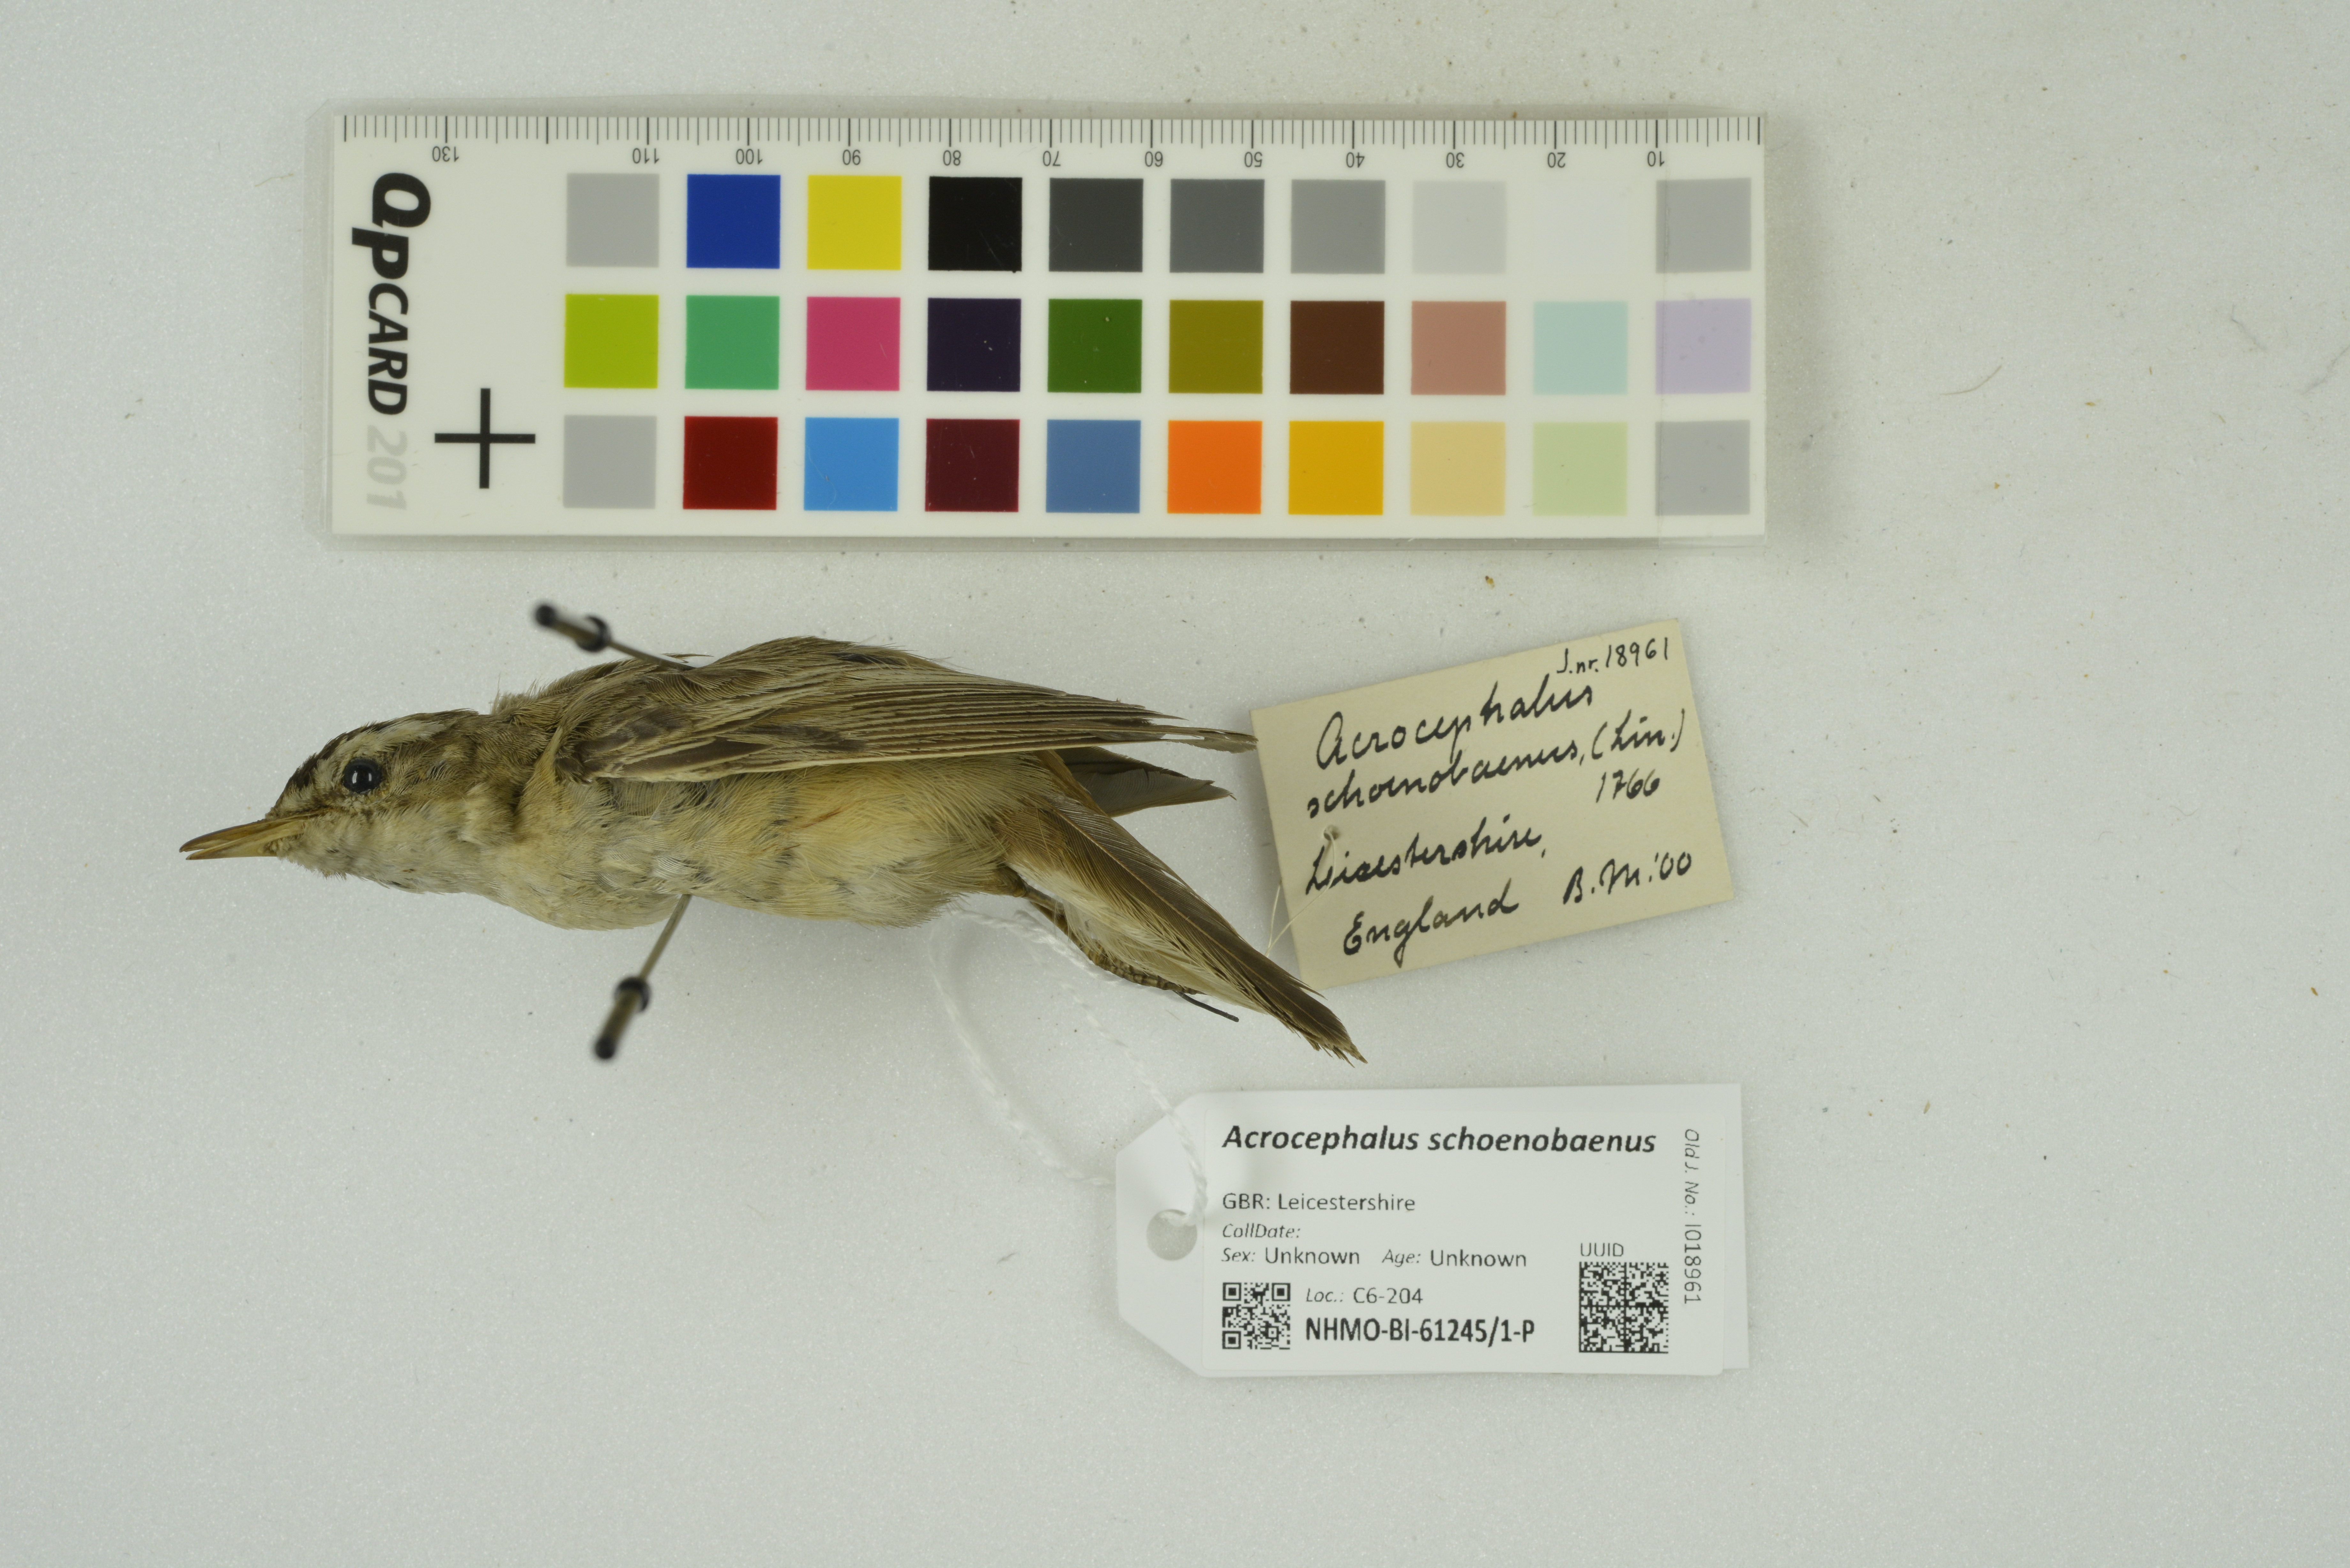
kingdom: Animalia
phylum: Chordata
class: Aves
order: Passeriformes
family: Acrocephalidae
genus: Acrocephalus
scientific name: Acrocephalus schoenobaenus
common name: Sedge warbler
